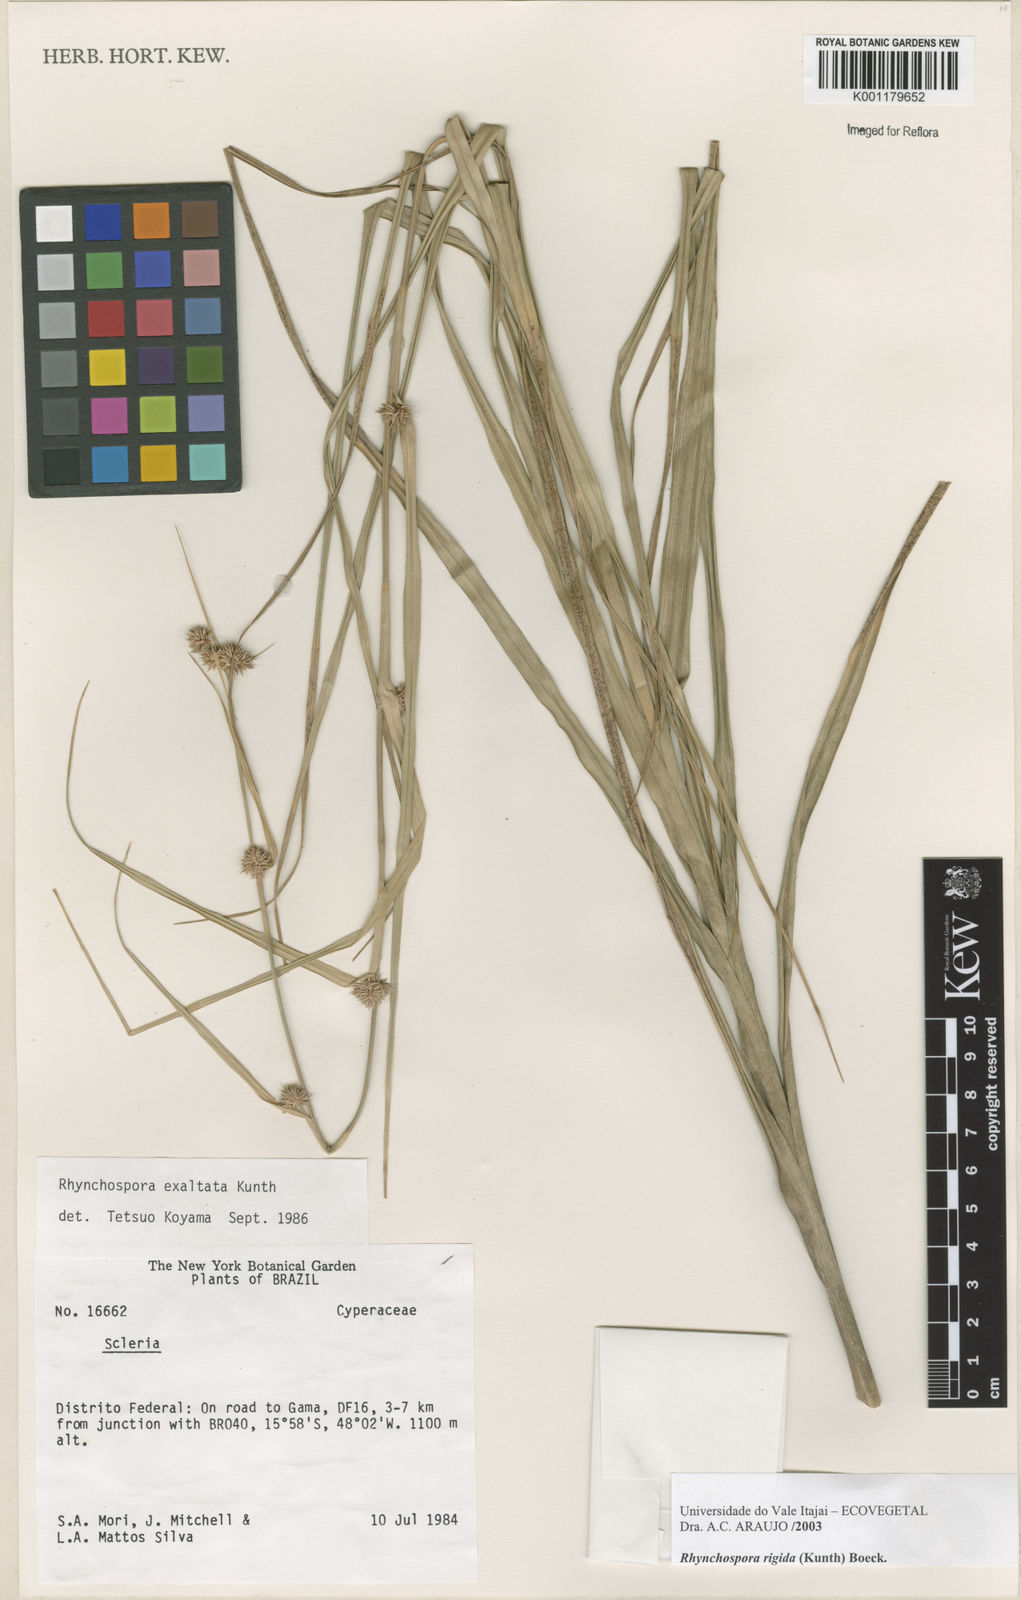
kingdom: Plantae
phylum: Tracheophyta
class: Liliopsida
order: Poales
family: Cyperaceae
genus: Rhynchospora
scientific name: Rhynchospora exaltata
